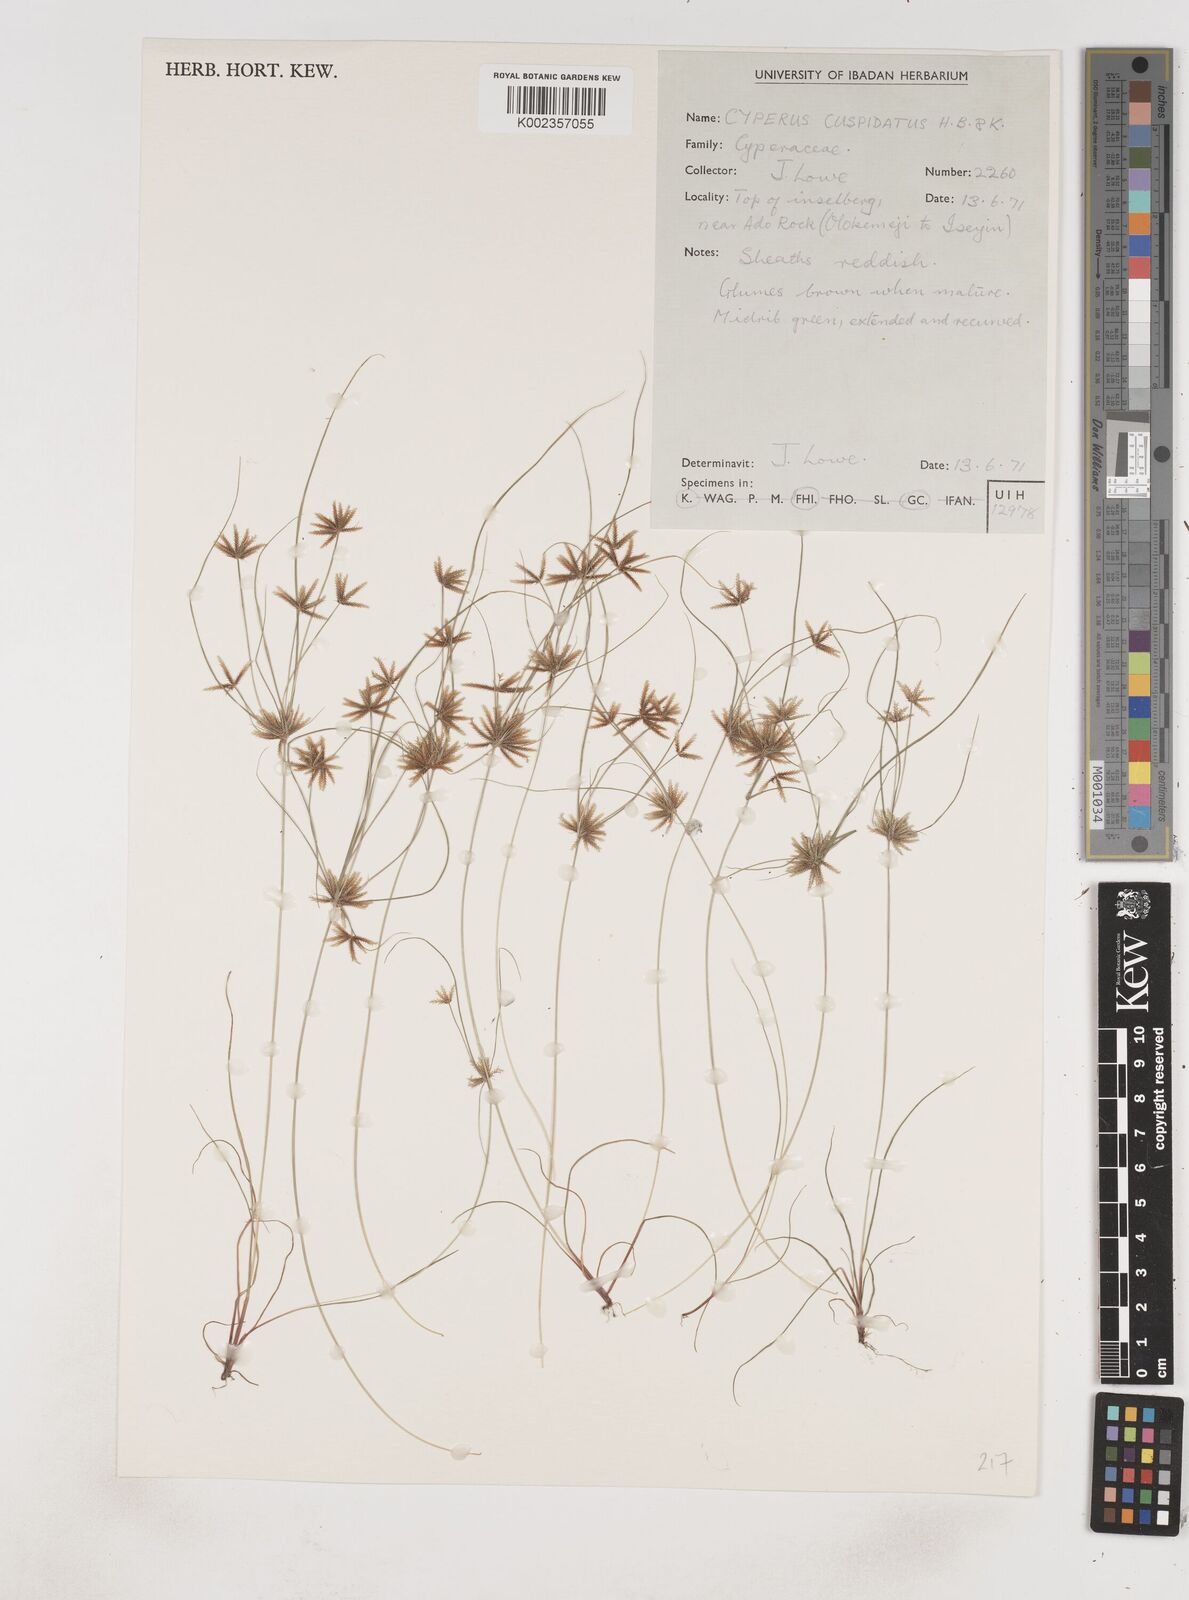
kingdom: Plantae
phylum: Tracheophyta
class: Liliopsida
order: Poales
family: Cyperaceae
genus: Cyperus
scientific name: Cyperus
